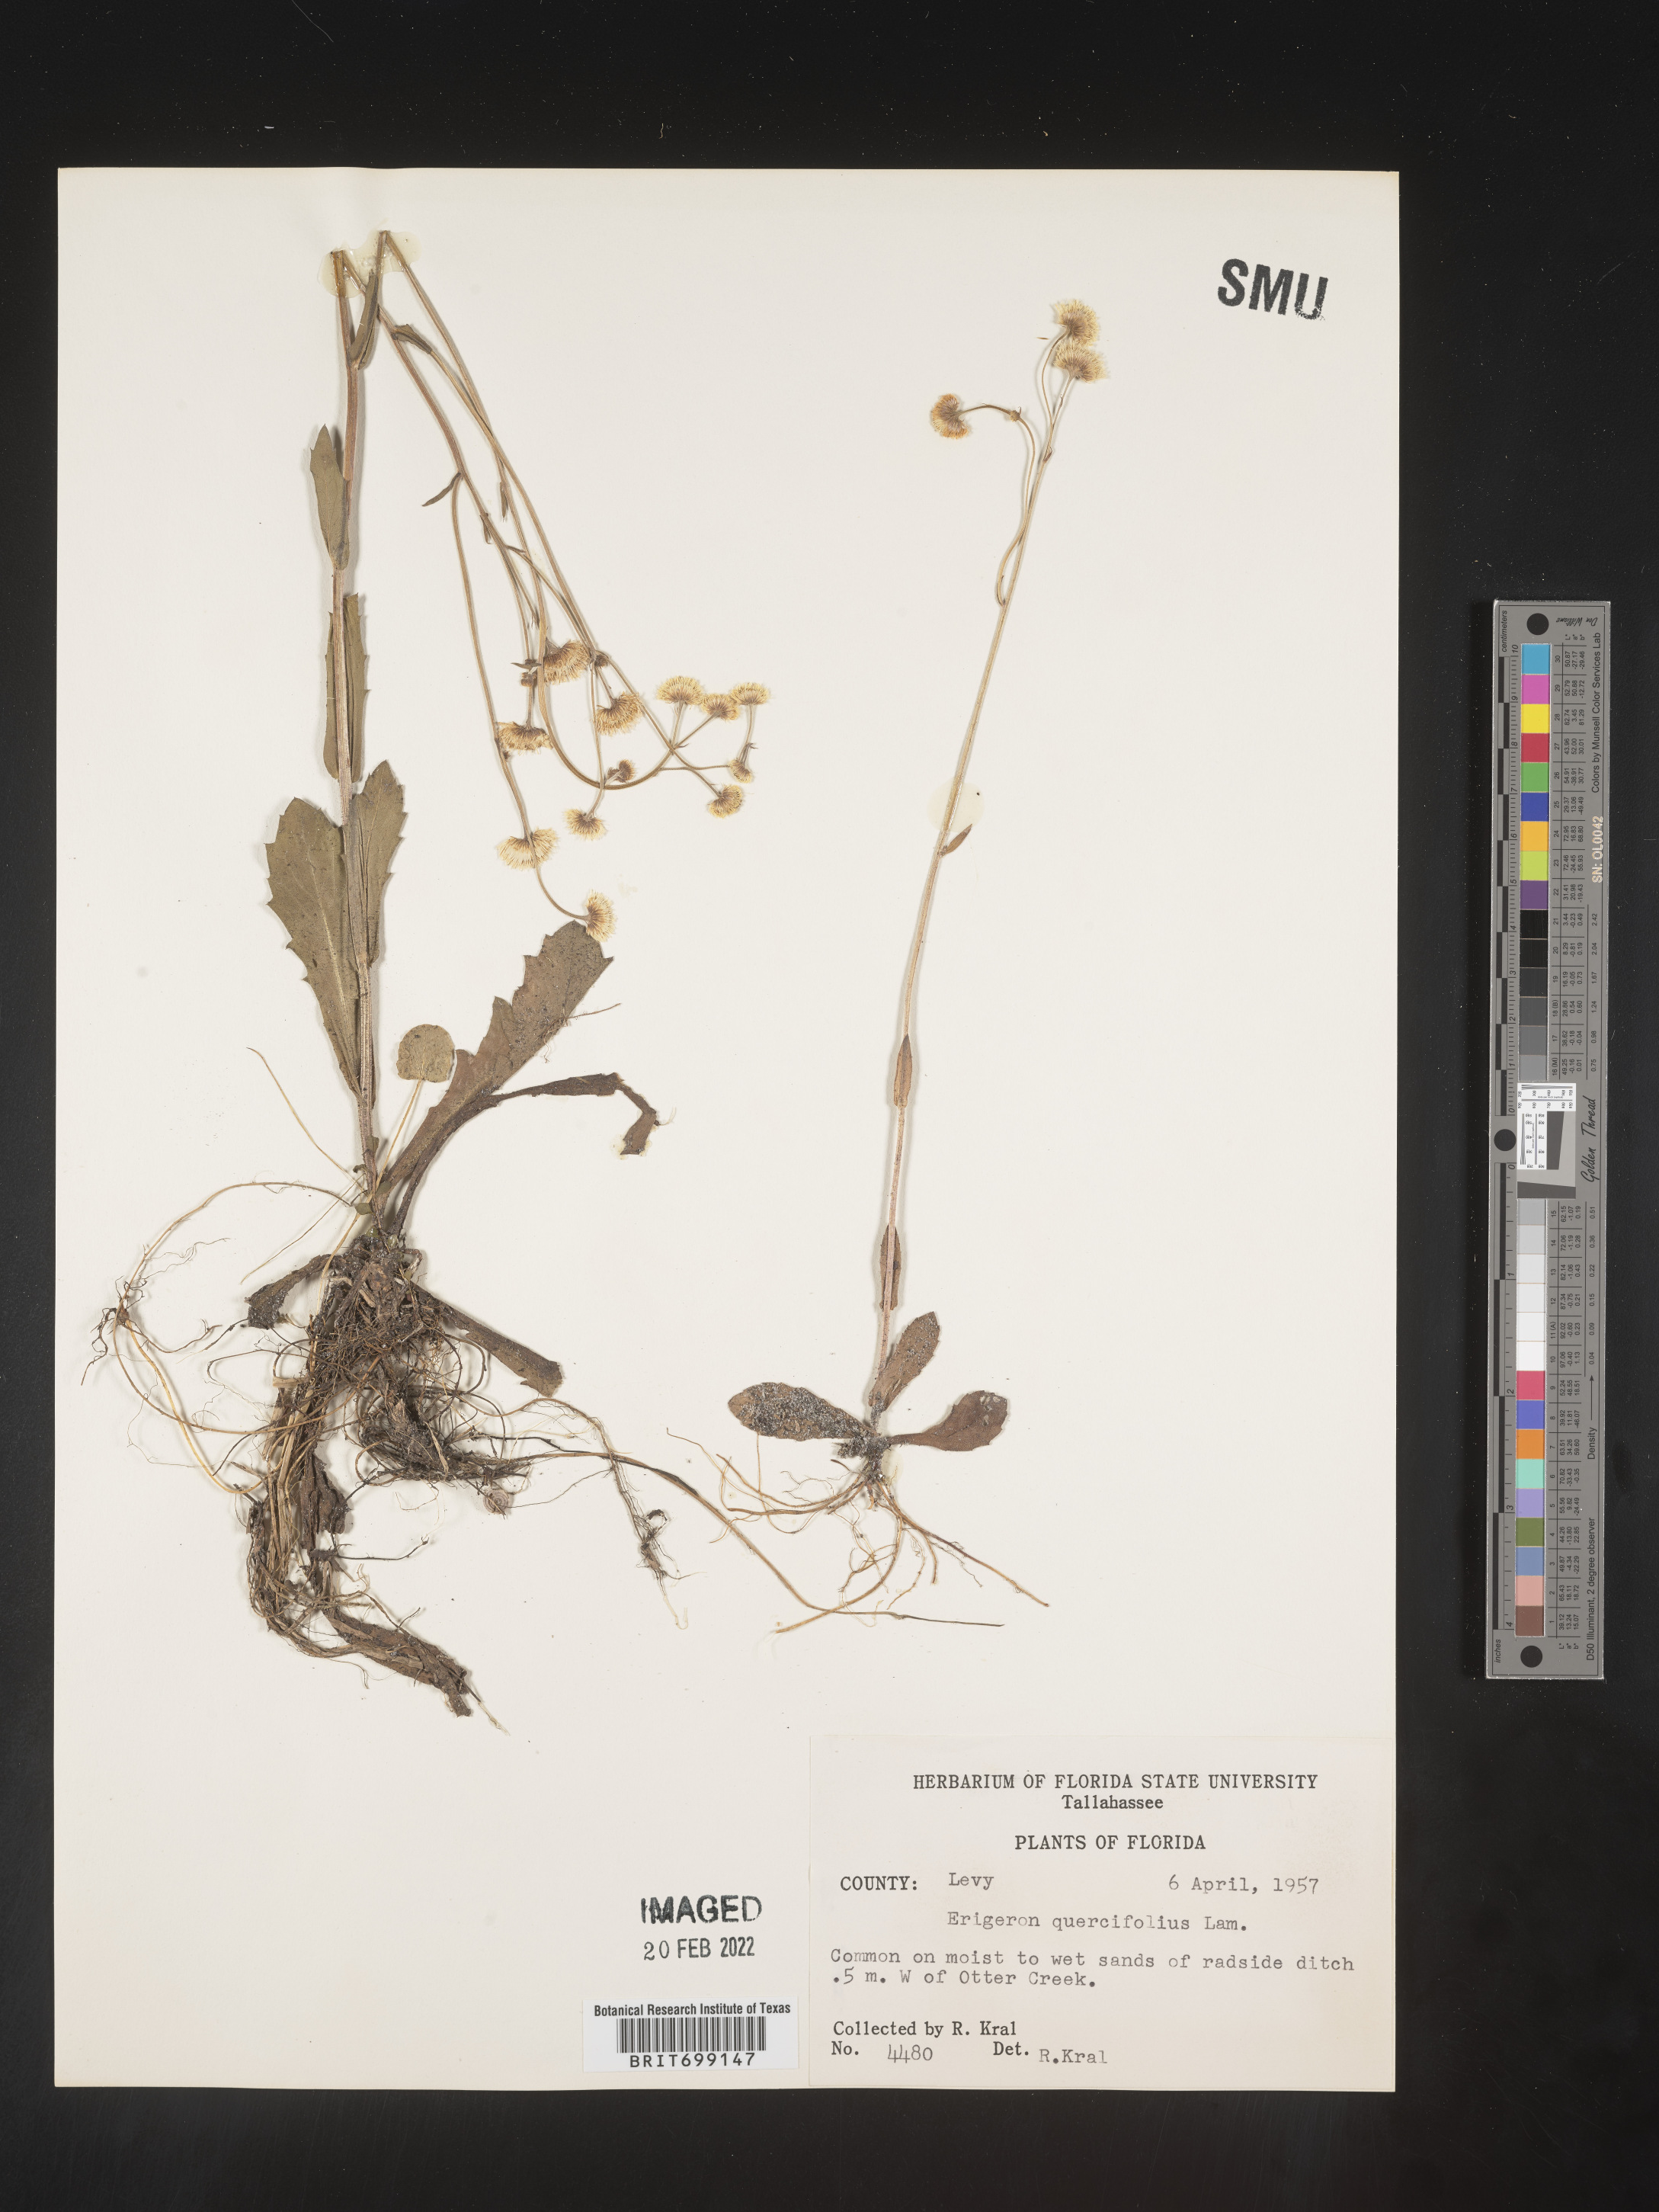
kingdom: Plantae
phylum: Tracheophyta
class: Magnoliopsida
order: Asterales
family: Asteraceae
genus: Erigeron
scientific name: Erigeron quercifolius
